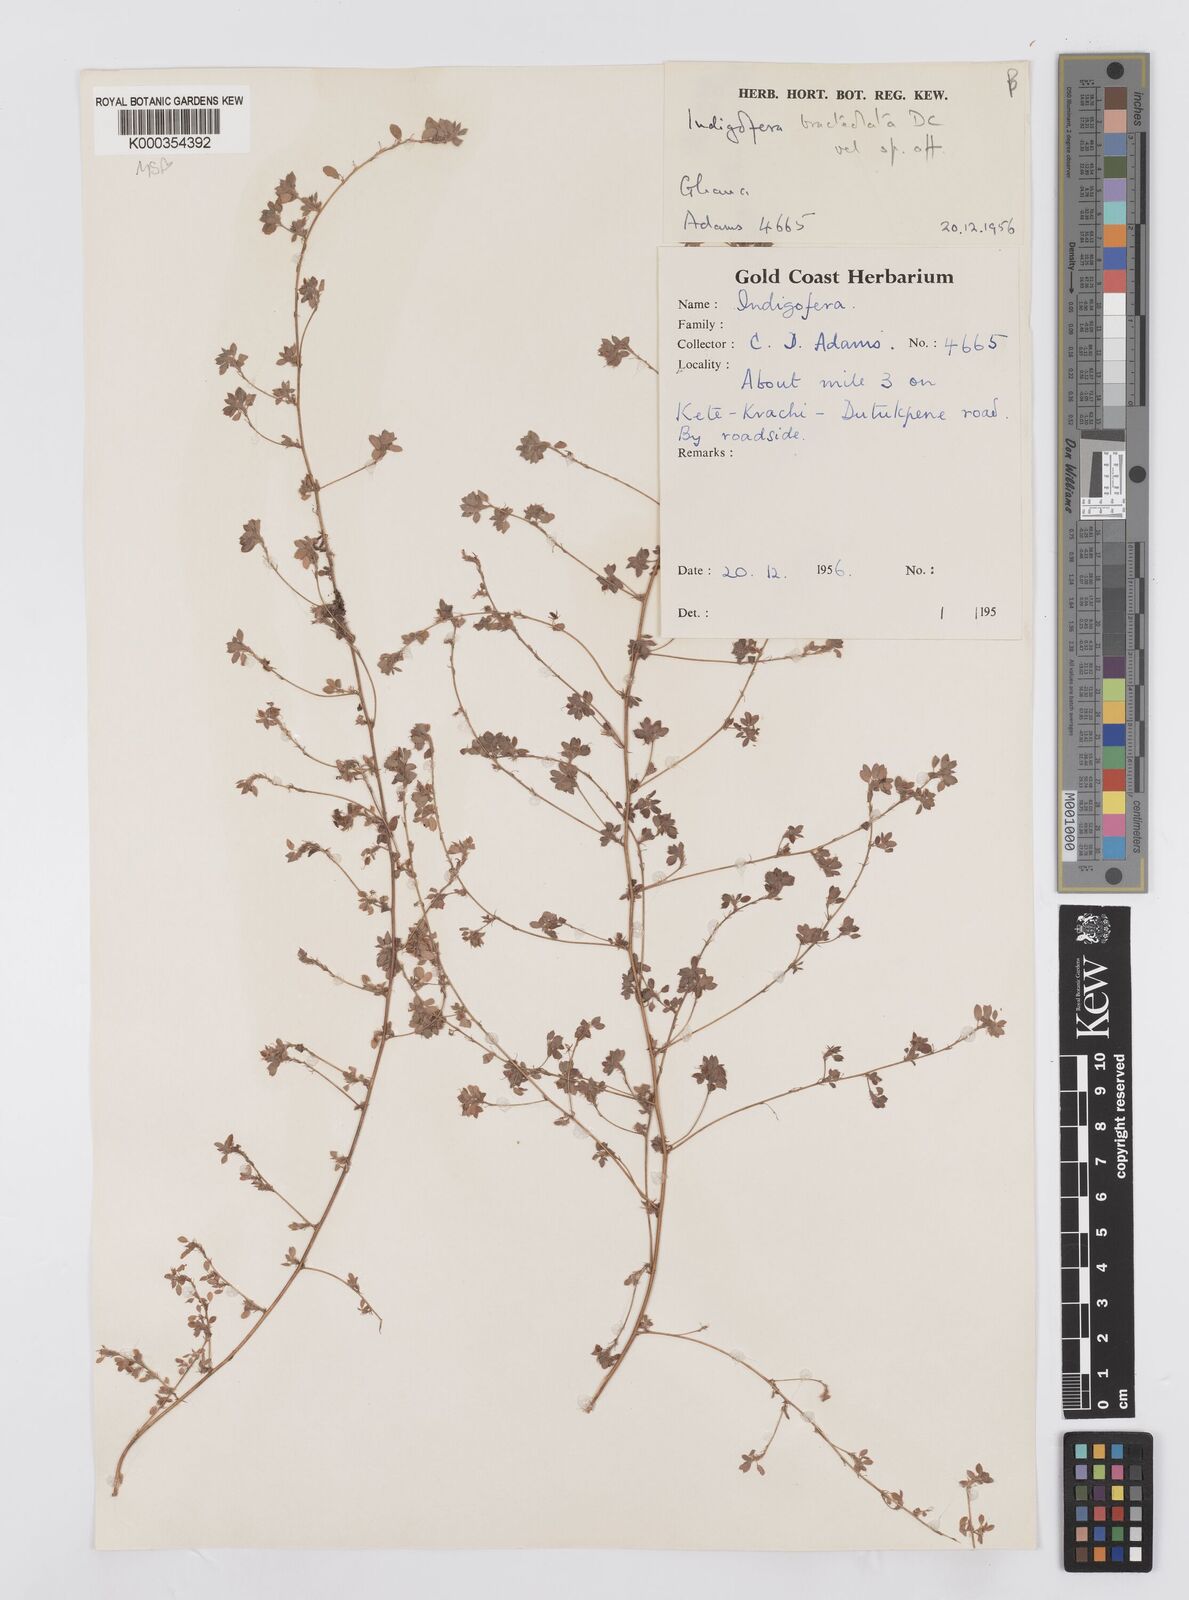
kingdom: Plantae
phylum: Tracheophyta
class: Magnoliopsida
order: Fabales
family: Fabaceae
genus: Indigofera
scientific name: Indigofera bracteolata
